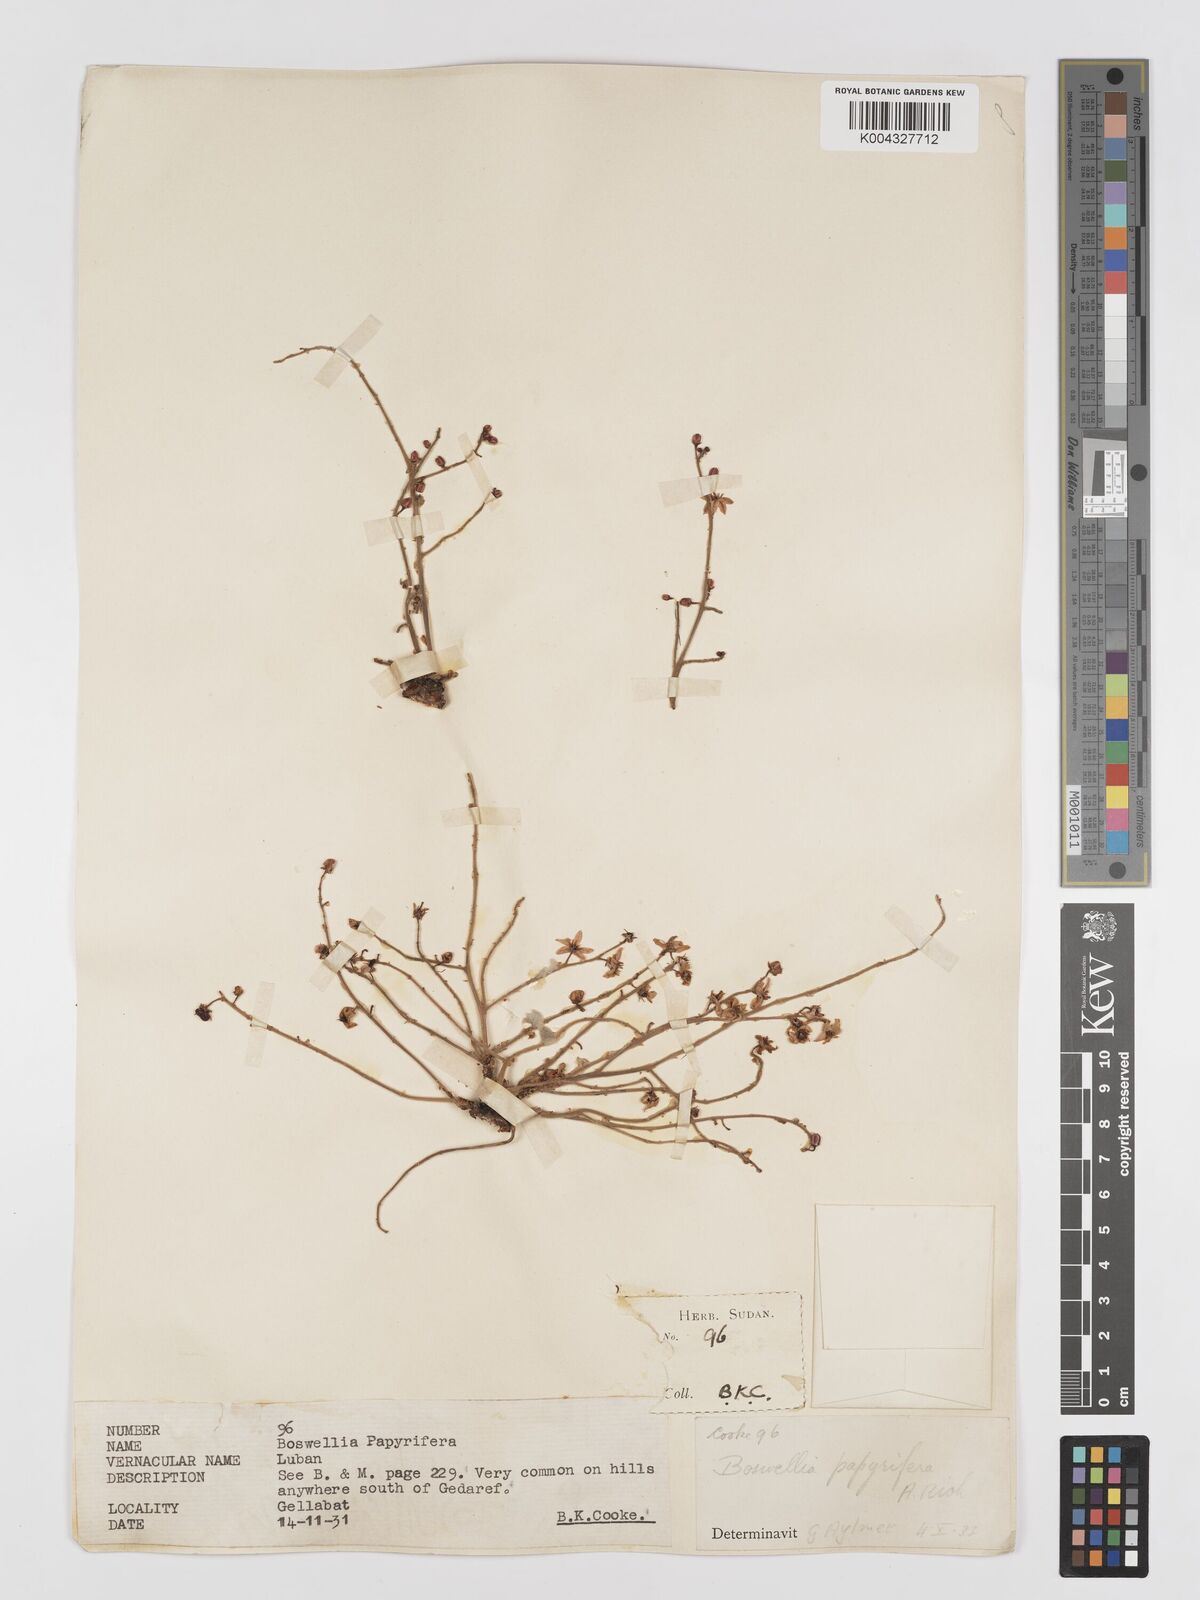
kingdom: Plantae
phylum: Tracheophyta
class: Magnoliopsida
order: Sapindales
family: Burseraceae
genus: Boswellia
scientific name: Boswellia papyrifera
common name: Sudanese frankincense
